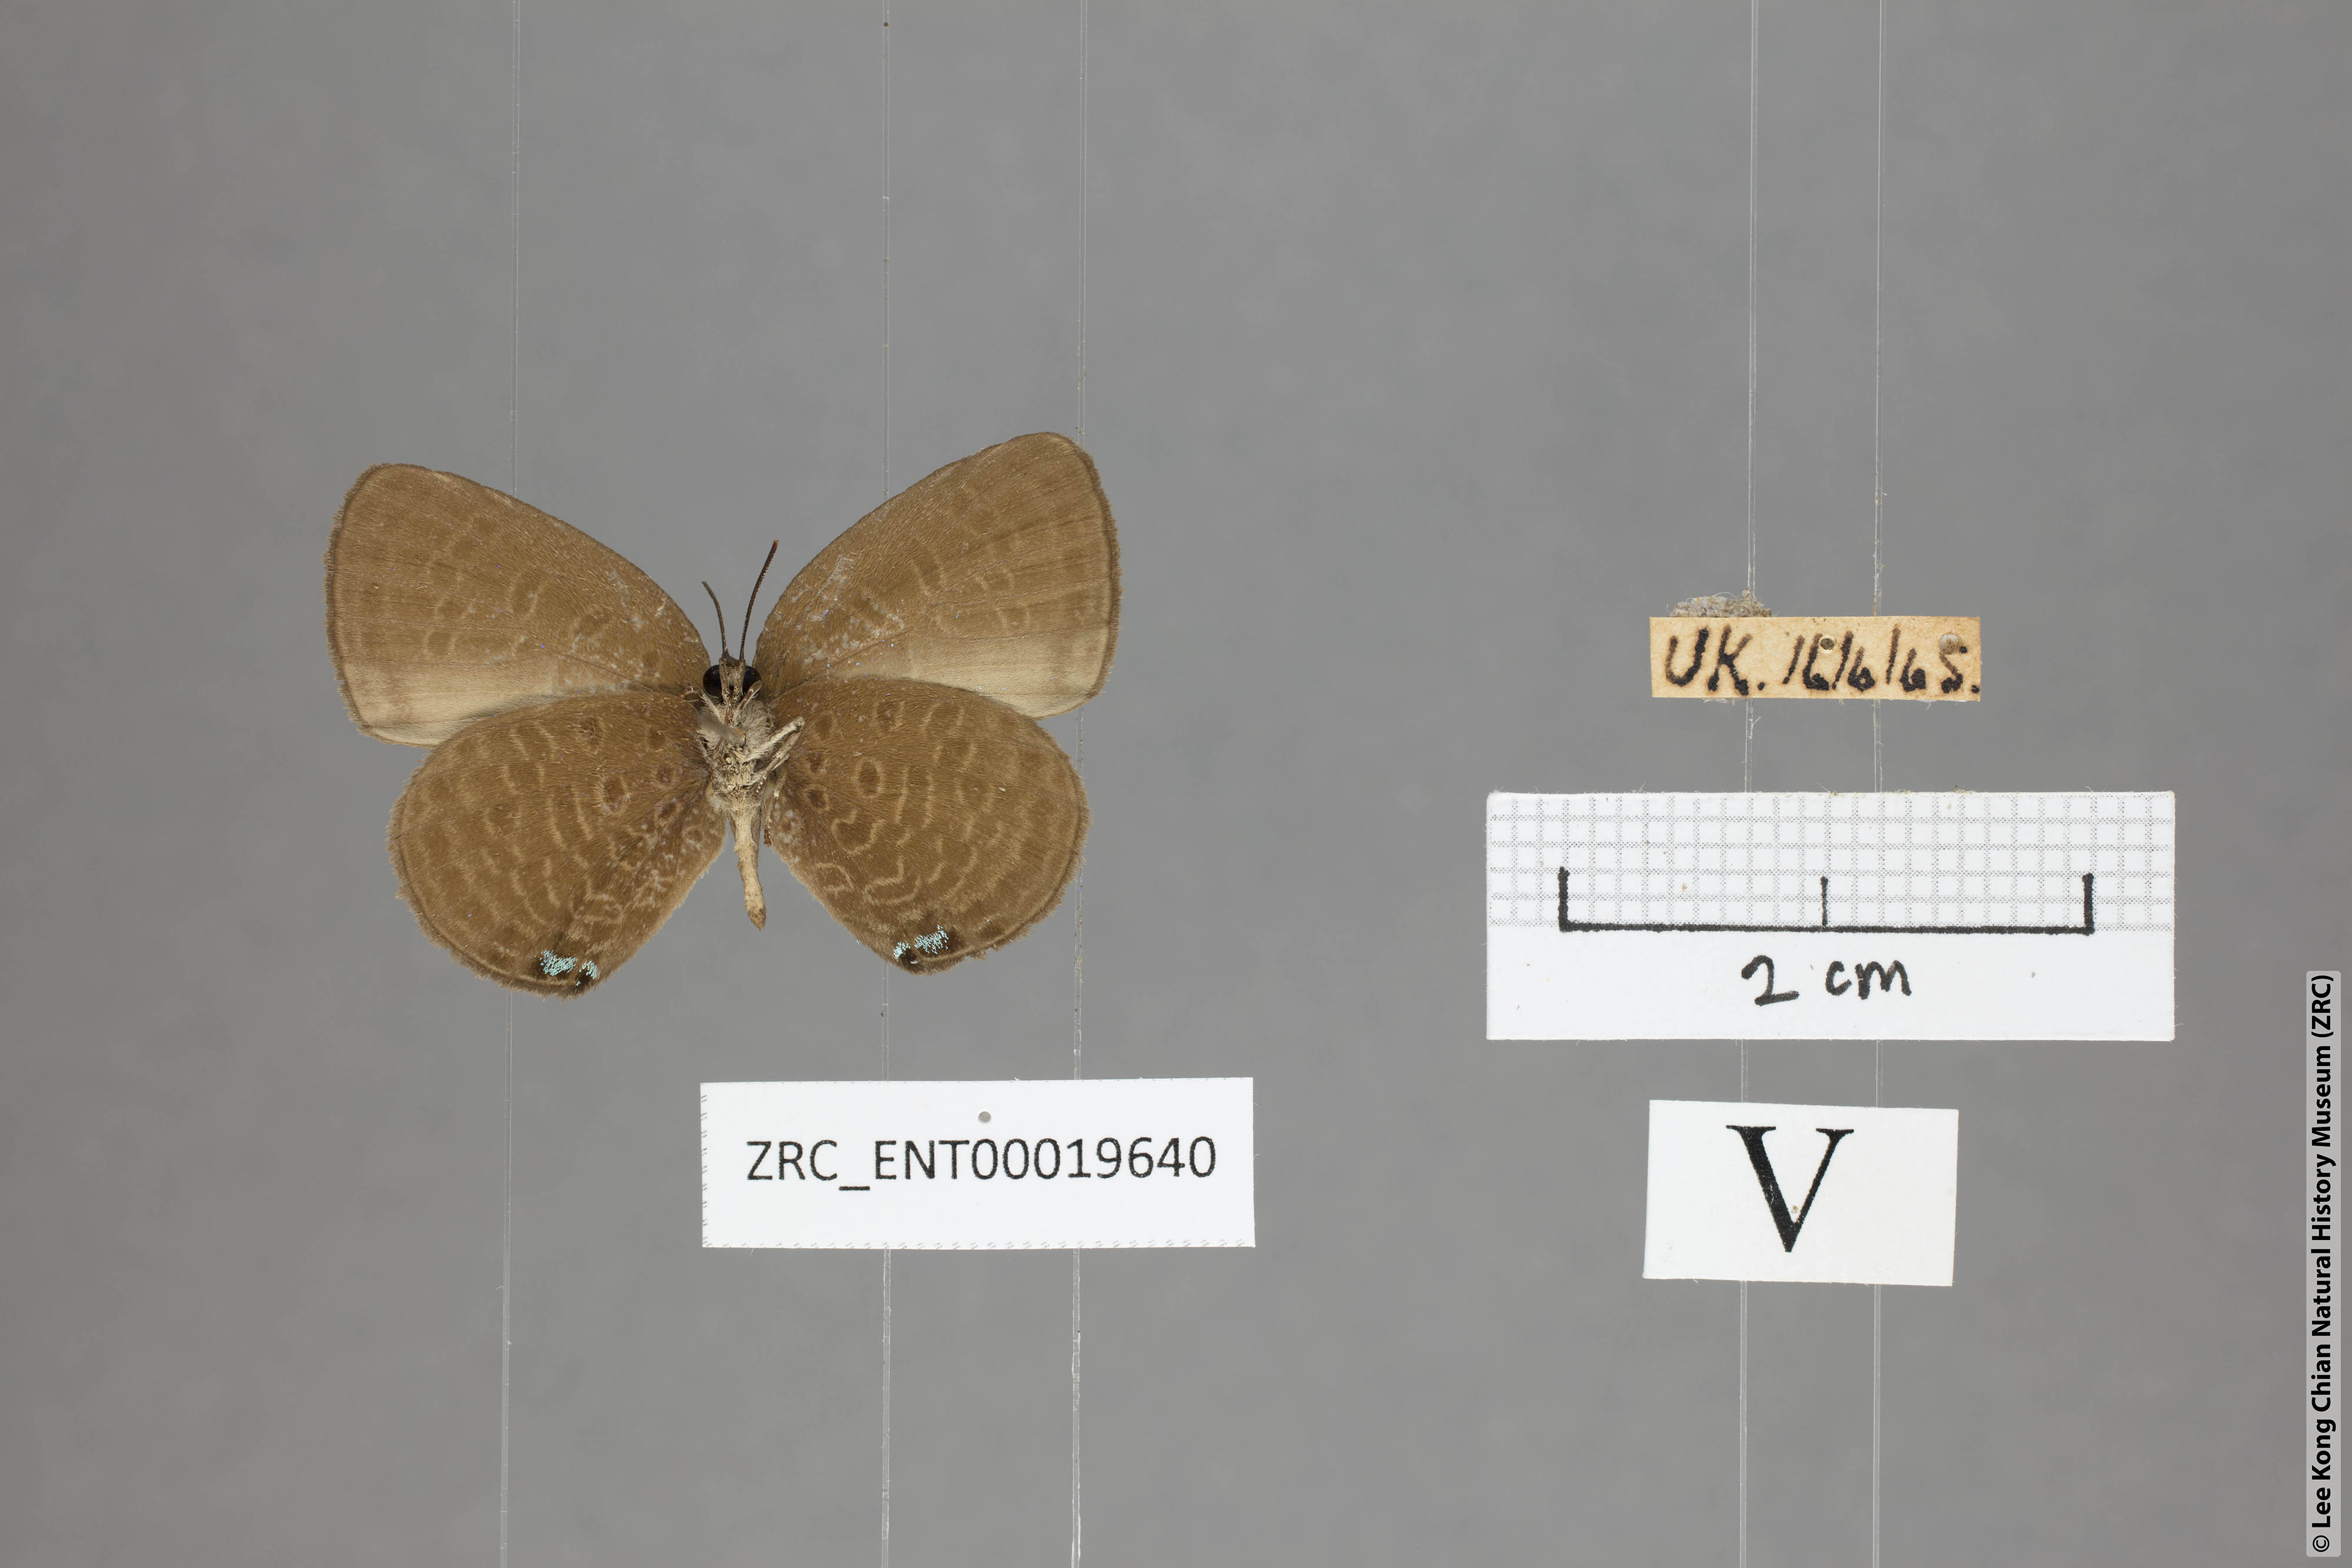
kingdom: Animalia
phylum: Arthropoda
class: Insecta
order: Lepidoptera
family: Lycaenidae
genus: Arhopala
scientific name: Arhopala metamuta
